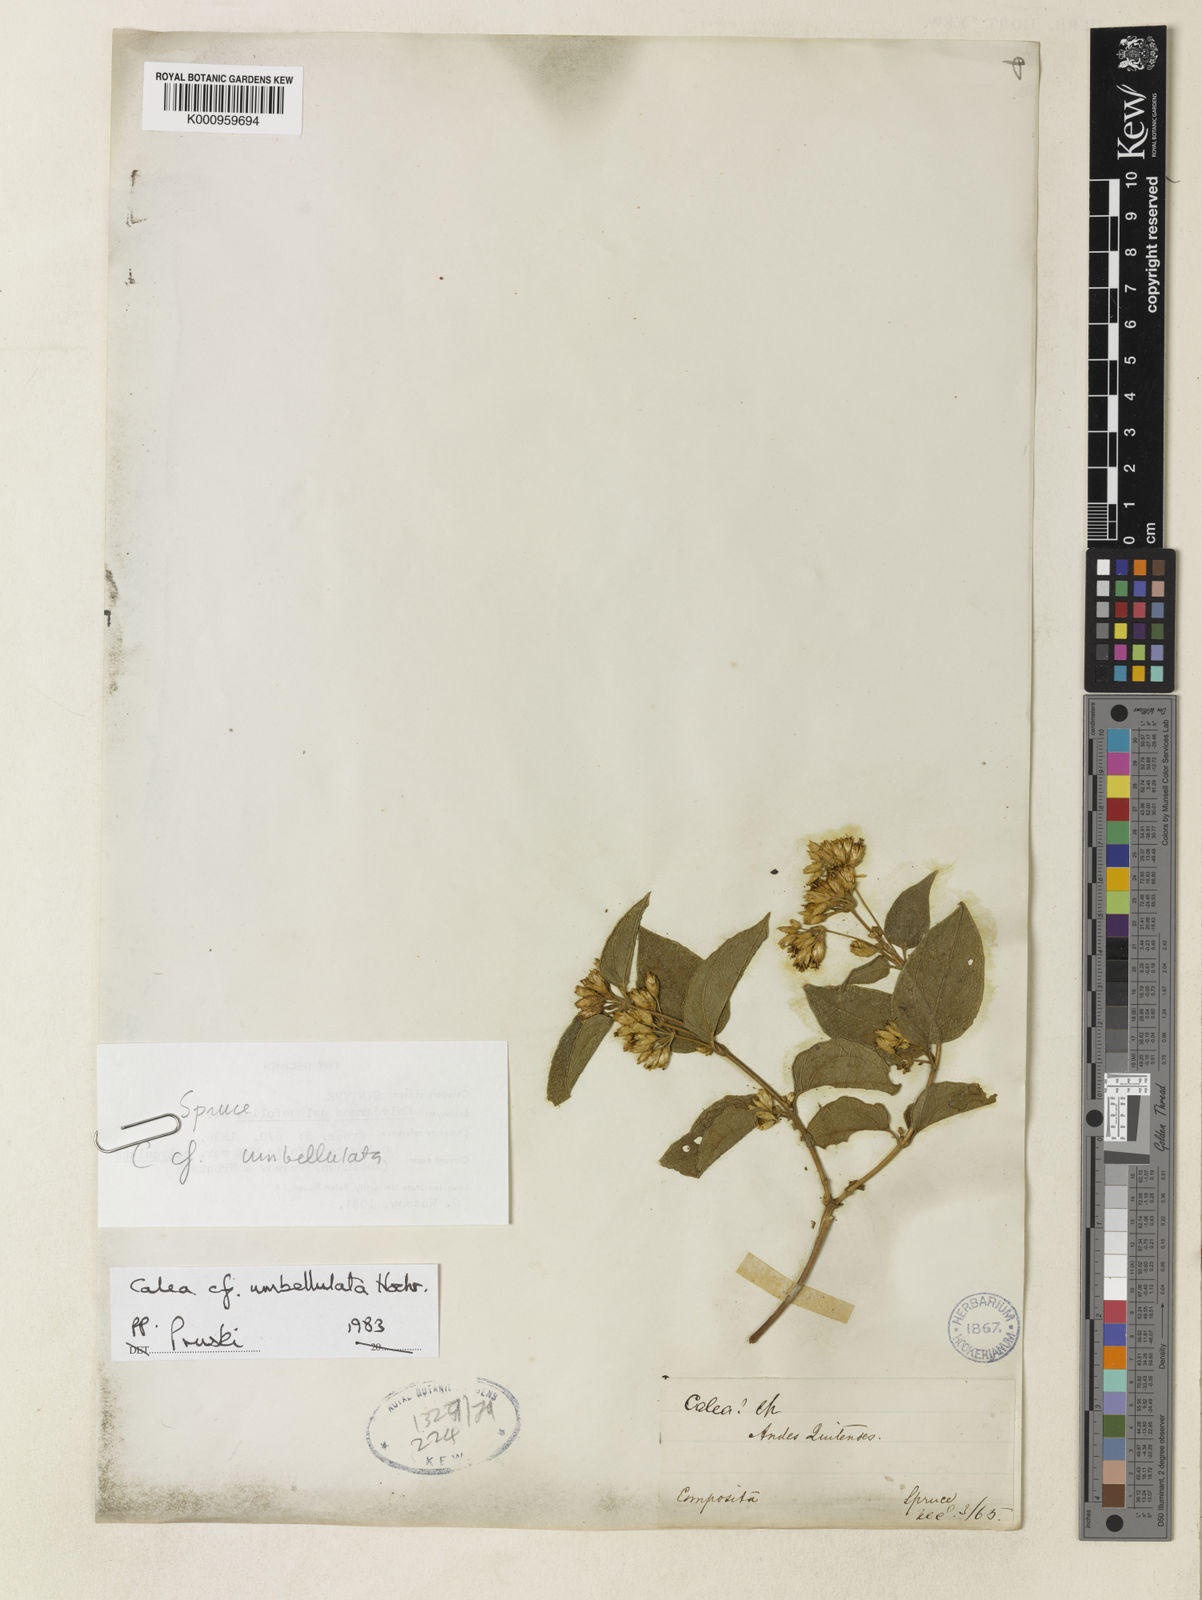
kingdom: Plantae
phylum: Tracheophyta
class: Magnoliopsida
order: Asterales
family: Asteraceae
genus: Calea
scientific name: Calea umbellulata
